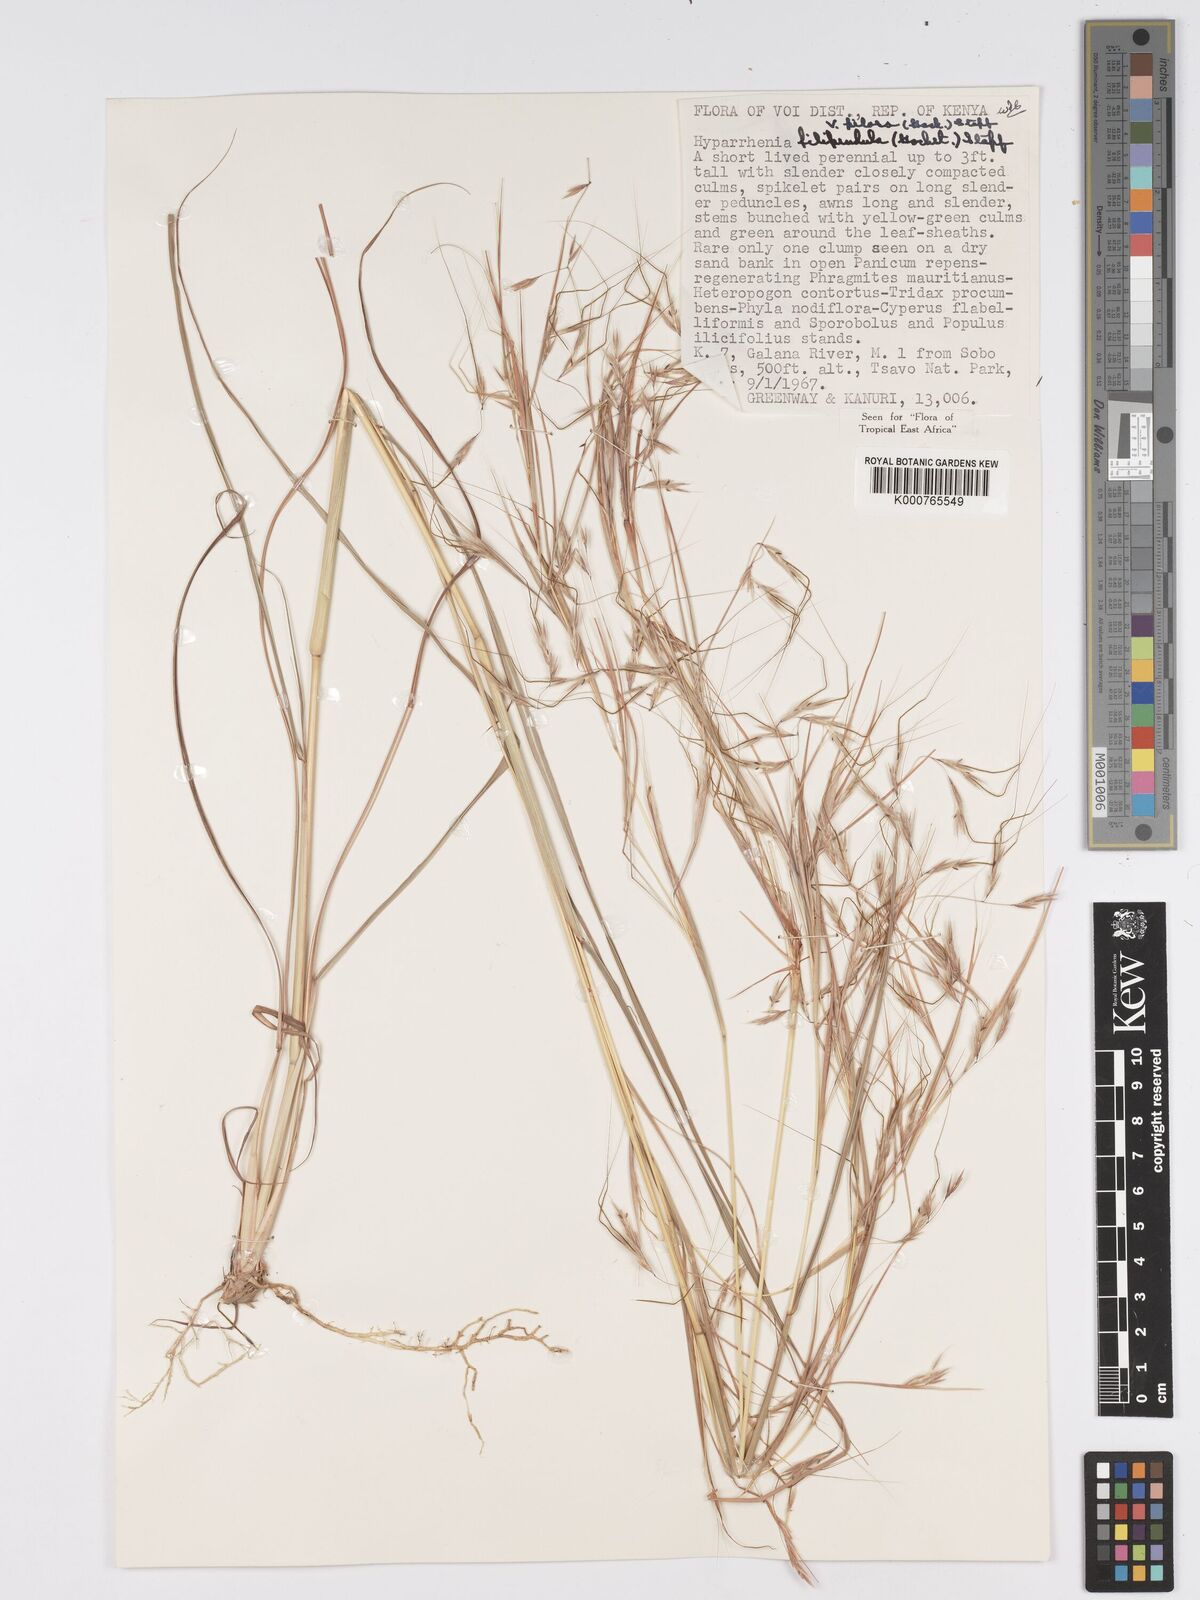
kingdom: Plantae
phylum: Tracheophyta
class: Liliopsida
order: Poales
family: Poaceae
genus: Hyparrhenia
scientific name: Hyparrhenia filipendula
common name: Tambookie grass
